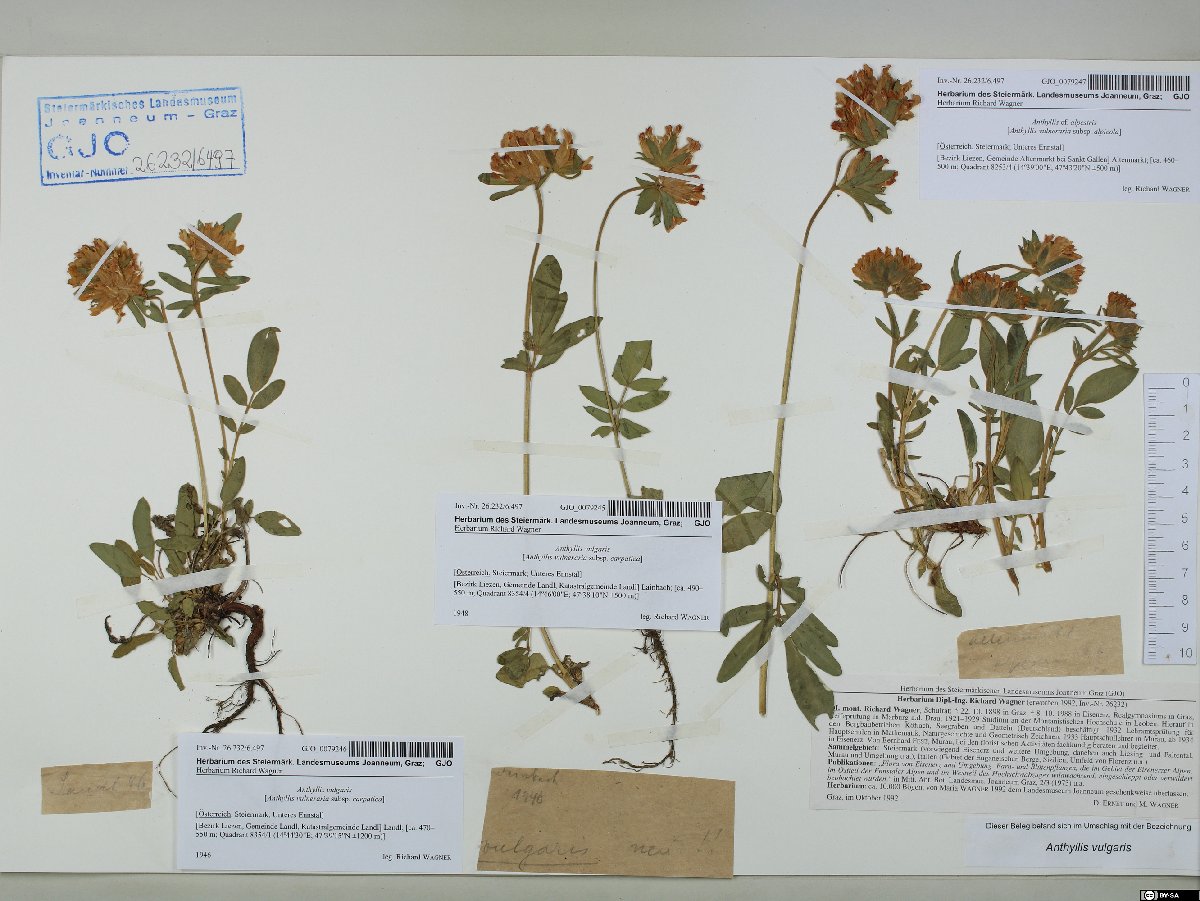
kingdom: Plantae
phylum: Tracheophyta
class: Magnoliopsida
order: Fabales
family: Fabaceae
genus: Anthyllis
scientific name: Anthyllis vulneraria
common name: Kidney vetch
